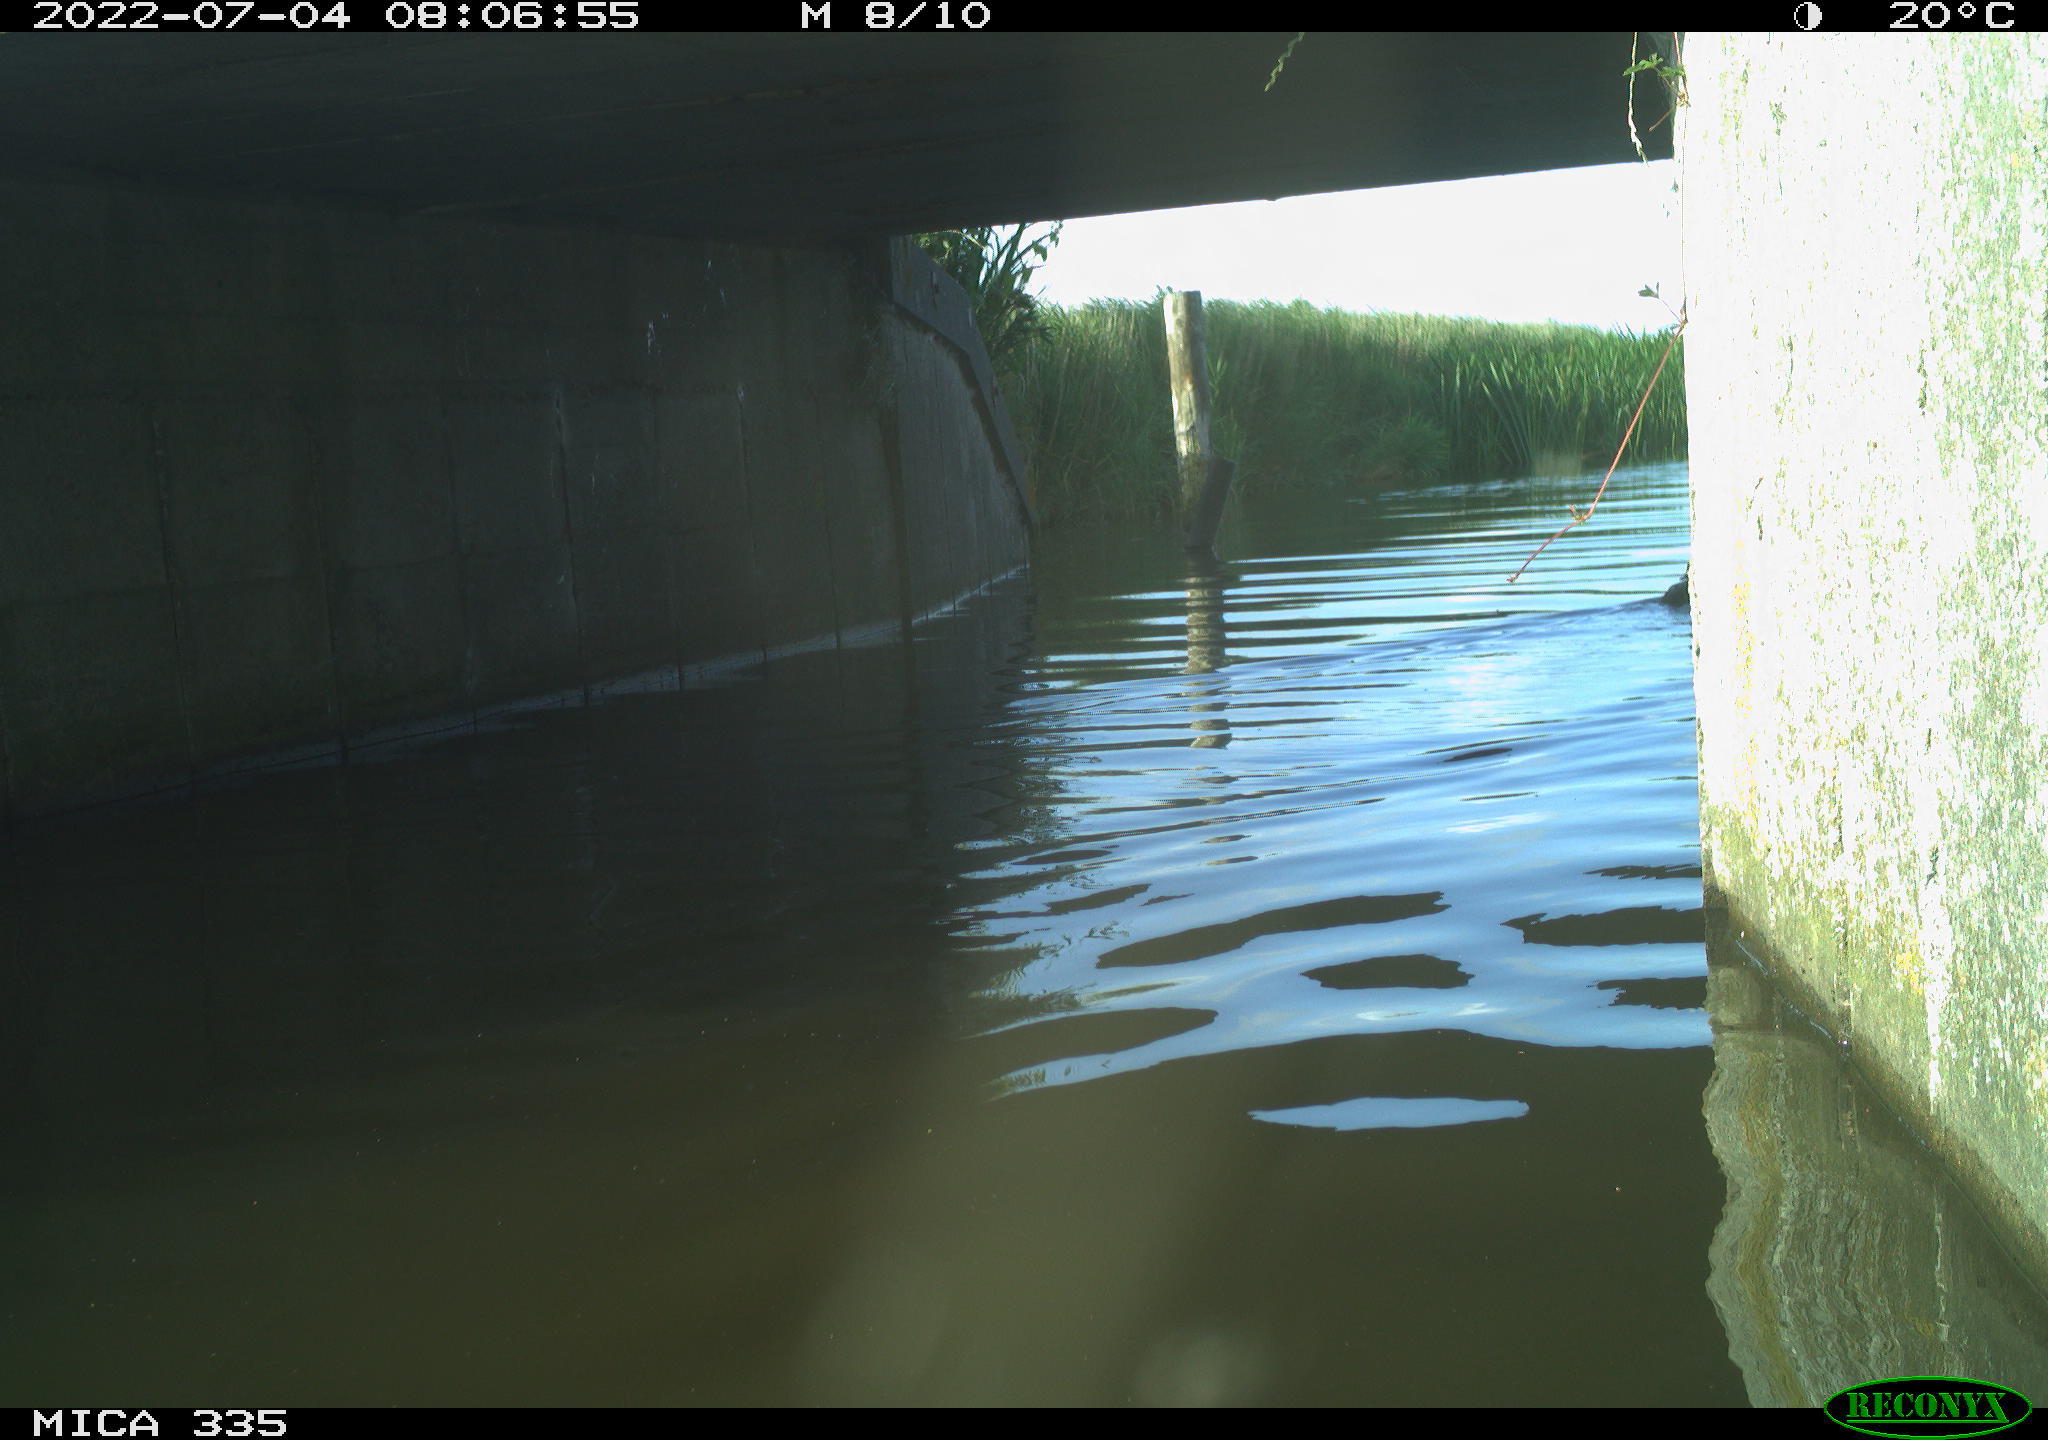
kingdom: Animalia
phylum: Chordata
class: Aves
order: Anseriformes
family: Anatidae
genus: Anas
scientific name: Anas platyrhynchos
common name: Mallard
